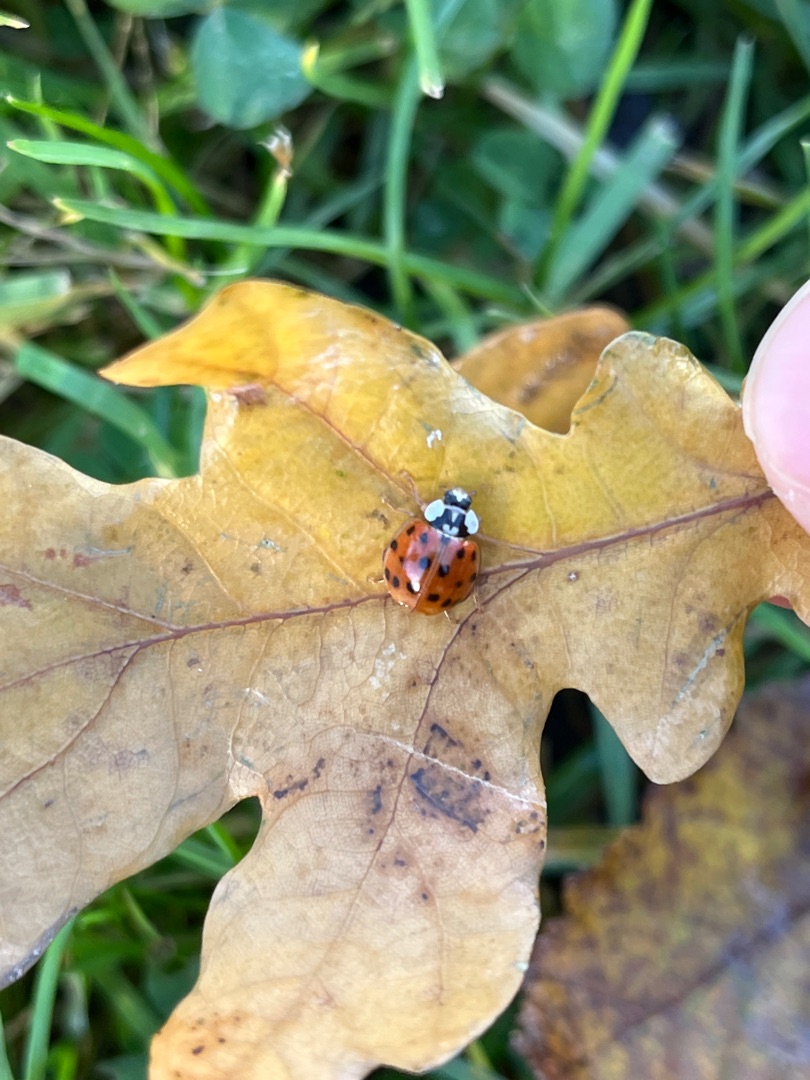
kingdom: Animalia
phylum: Arthropoda
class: Insecta
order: Coleoptera
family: Coccinellidae
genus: Harmonia
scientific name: Harmonia axyridis
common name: Harlekinmariehøne
